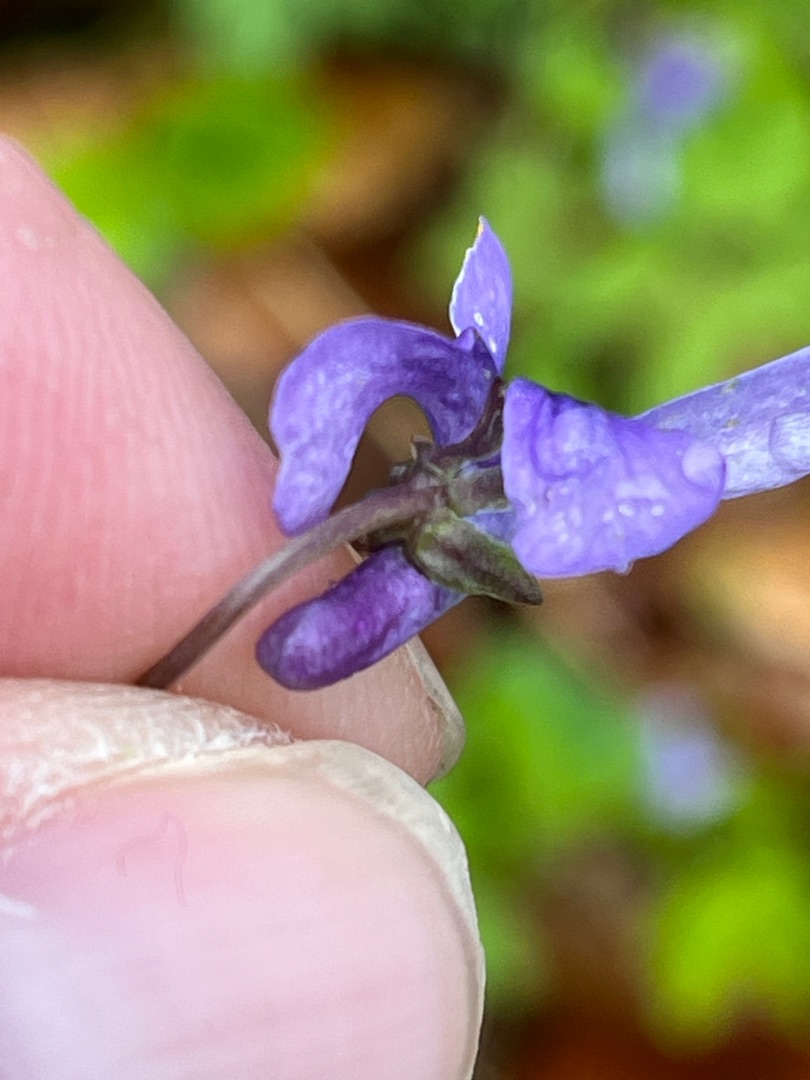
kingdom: Plantae
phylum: Tracheophyta
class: Magnoliopsida
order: Malpighiales
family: Violaceae
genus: Viola
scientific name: Viola reichenbachiana
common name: Skov-viol
